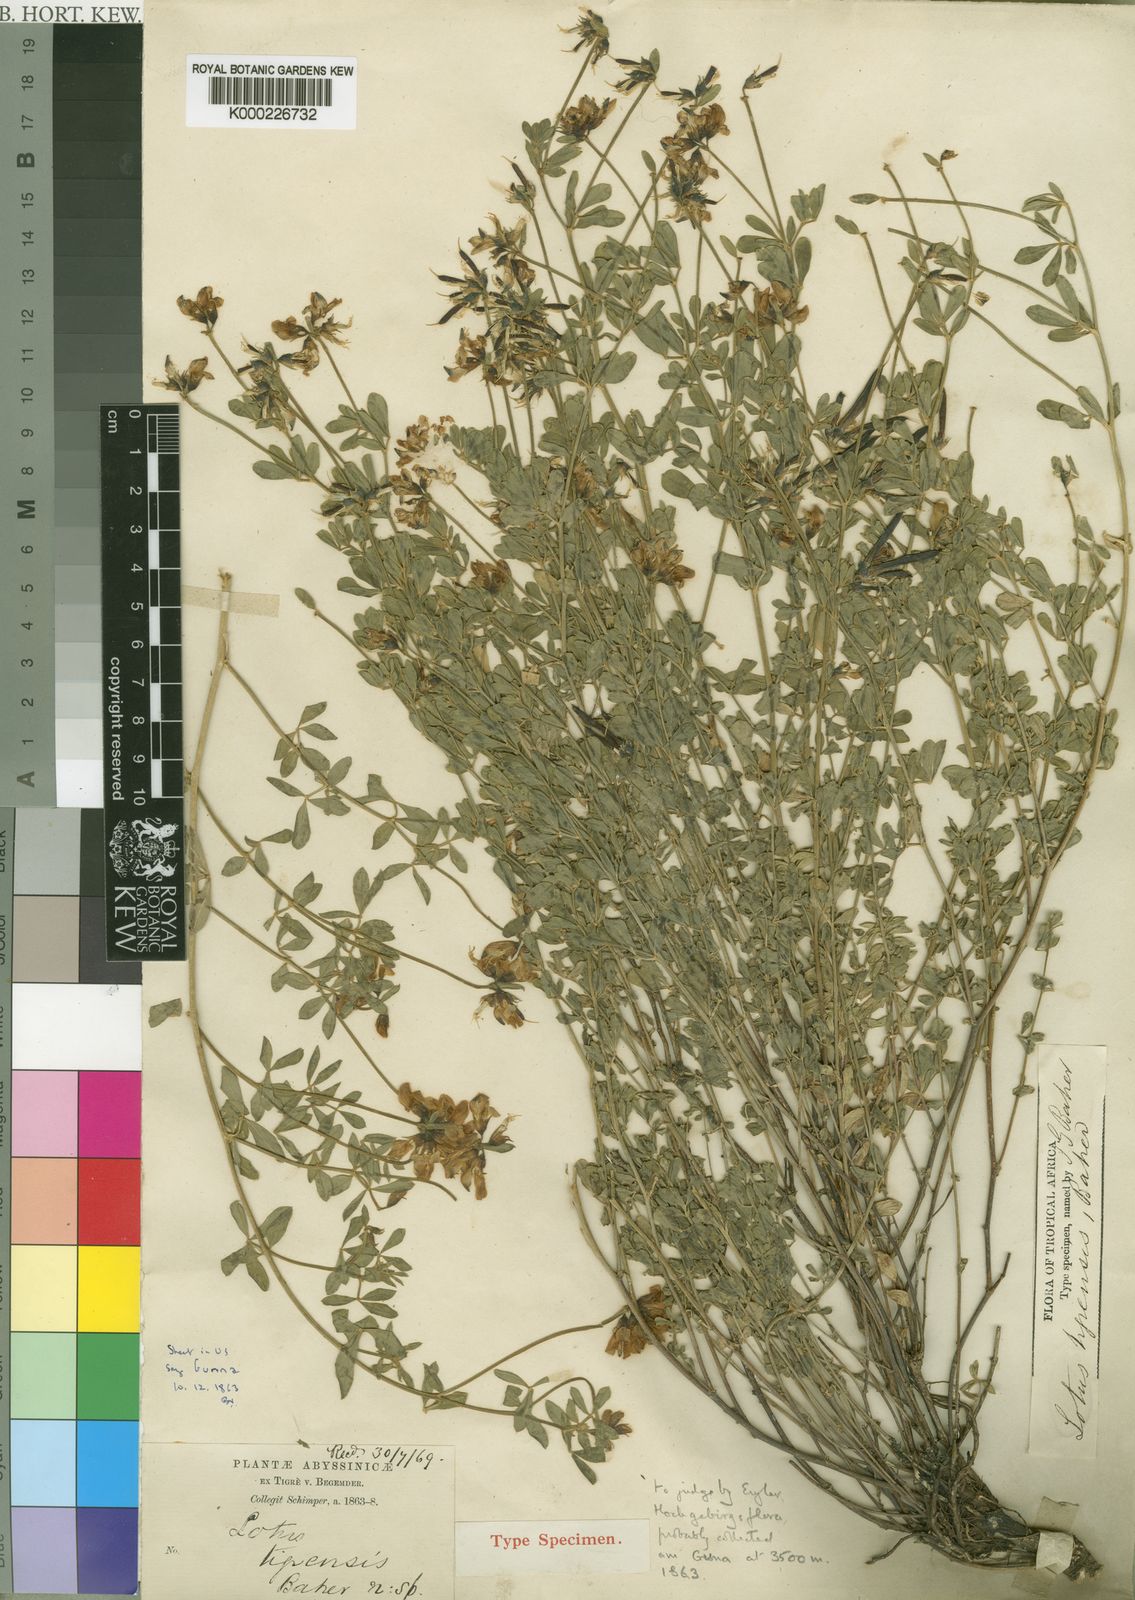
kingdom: Plantae
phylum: Tracheophyta
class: Magnoliopsida
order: Fabales
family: Fabaceae
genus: Lotus
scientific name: Lotus discolor
